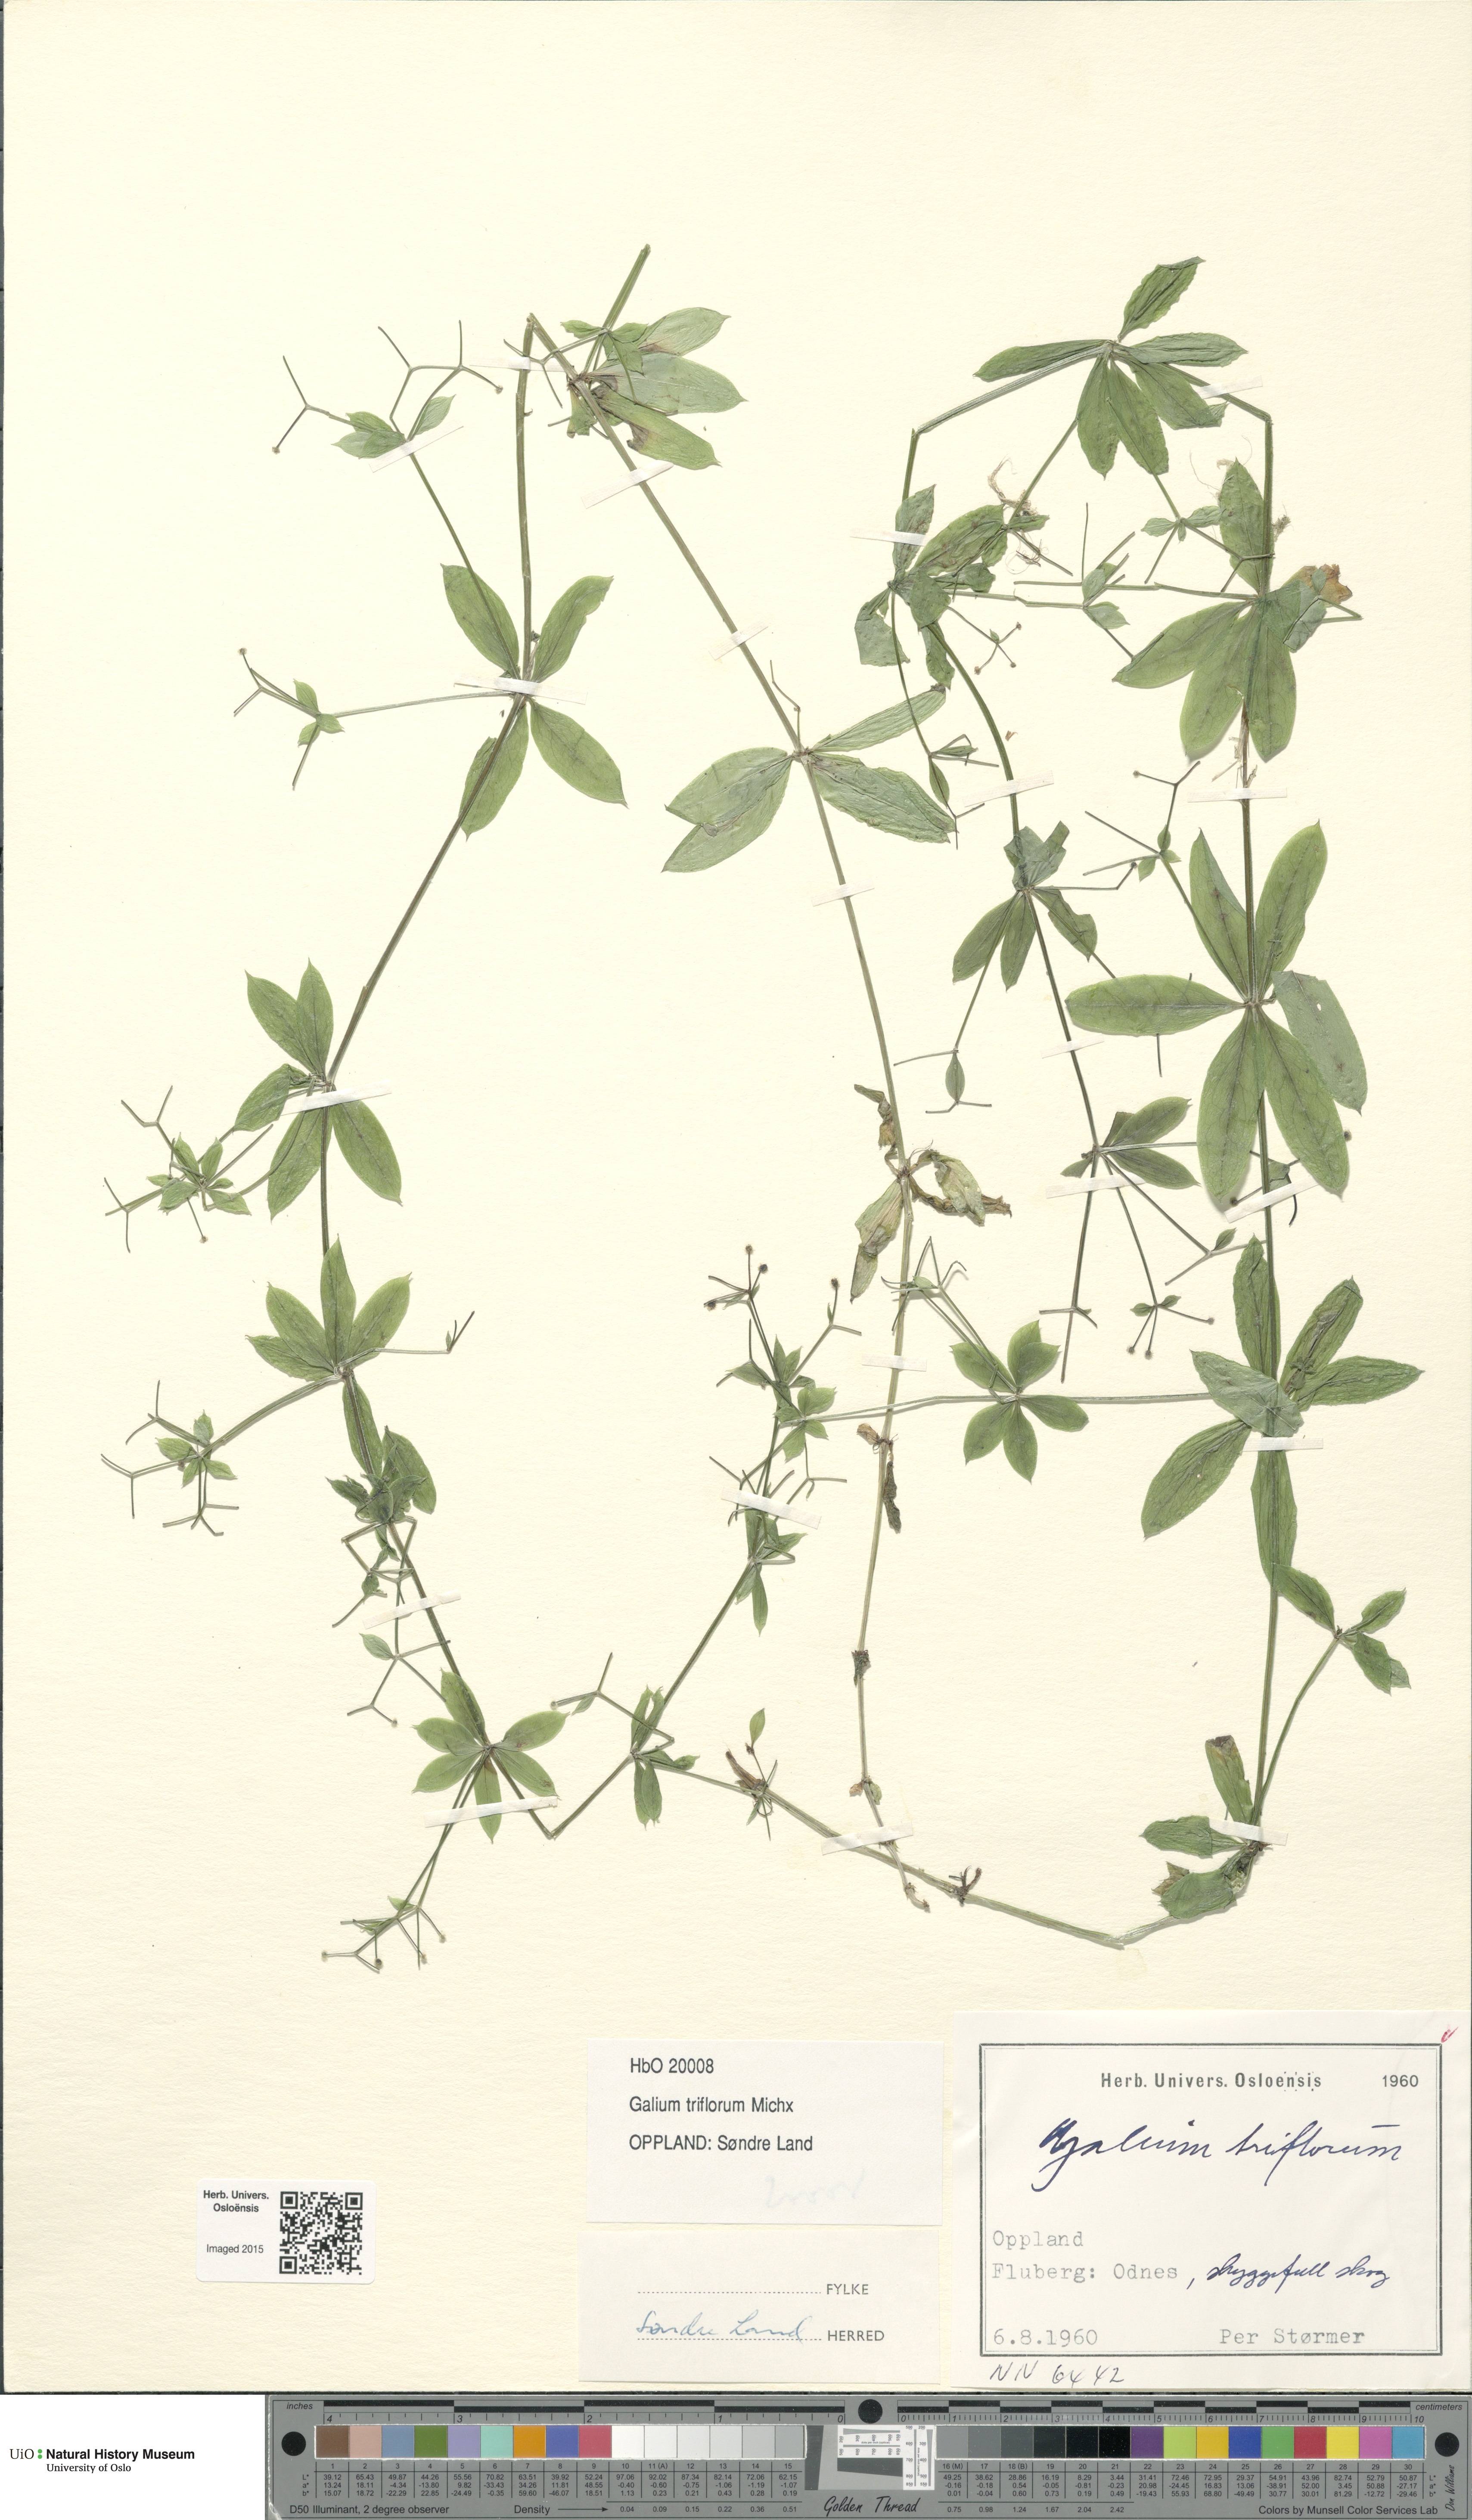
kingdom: Plantae
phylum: Tracheophyta
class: Magnoliopsida
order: Gentianales
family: Rubiaceae
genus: Galium
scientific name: Galium triflorum
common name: Fragrant bedstraw
